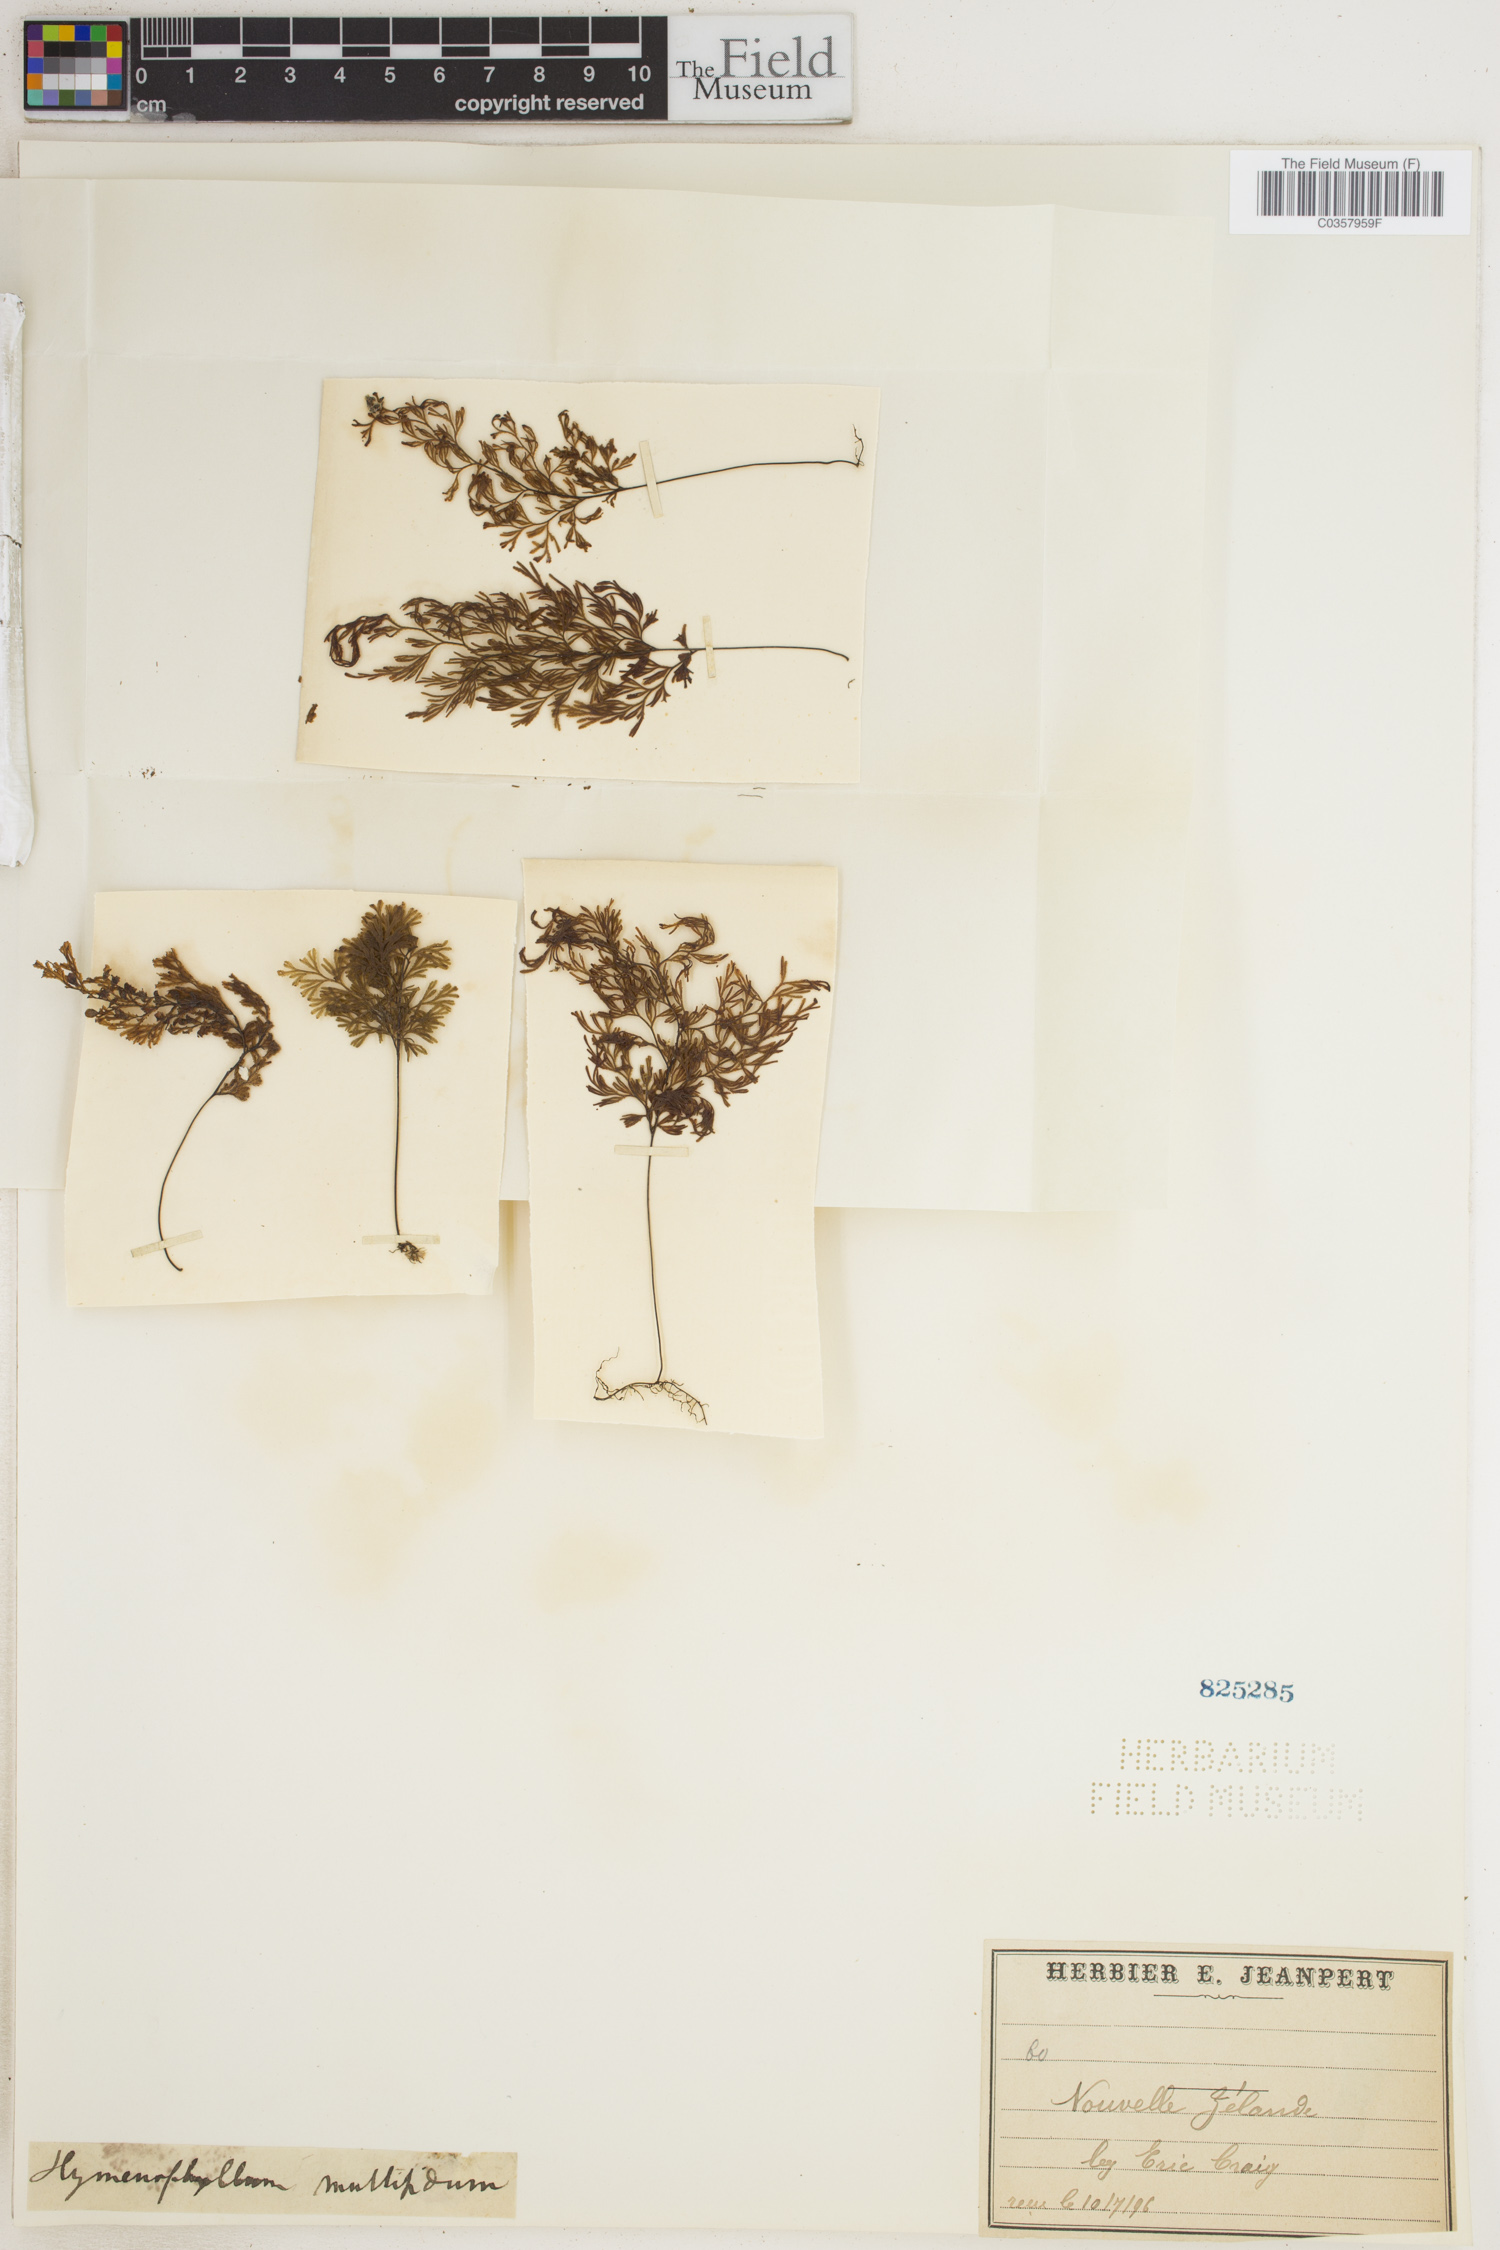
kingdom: Plantae
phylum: Tracheophyta
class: Polypodiopsida
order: Hymenophyllales
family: Hymenophyllaceae
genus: Hymenophyllum
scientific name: Hymenophyllum multifidum
